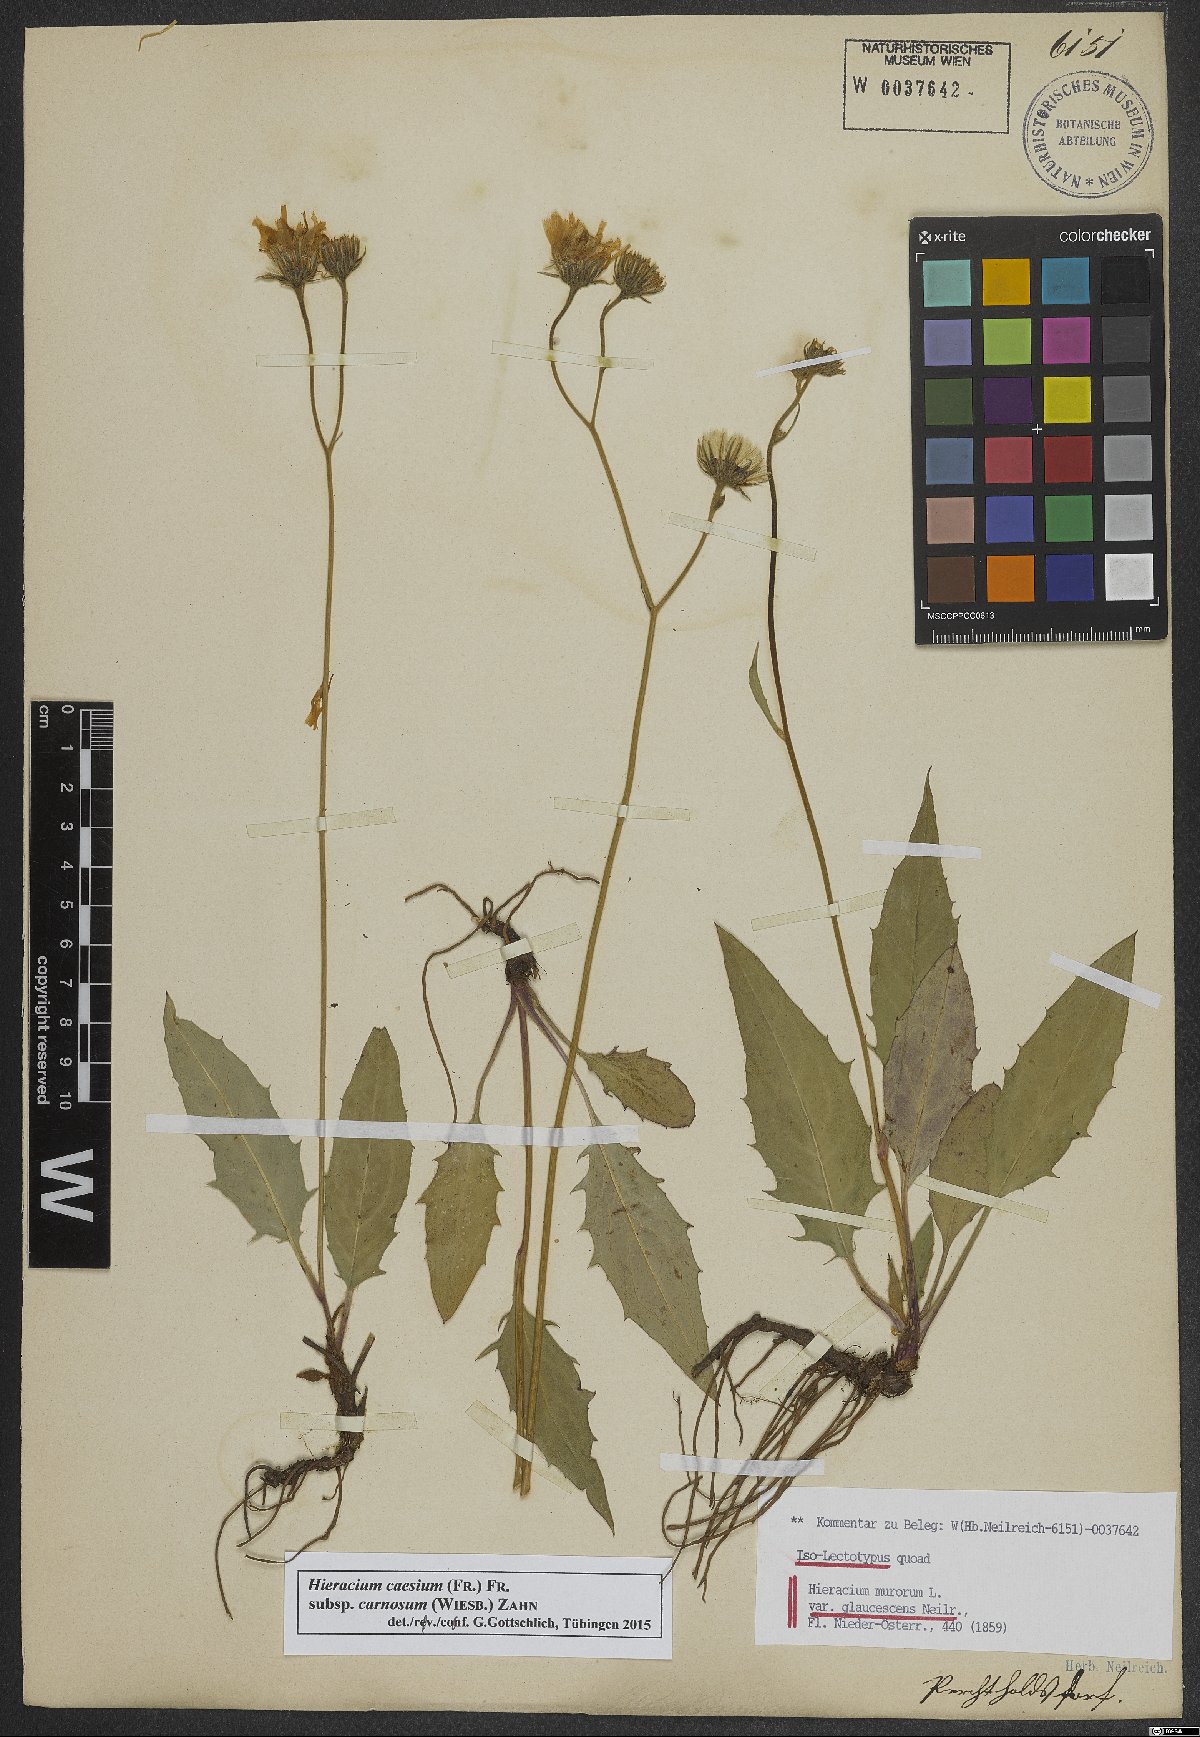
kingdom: Plantae
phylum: Tracheophyta
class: Magnoliopsida
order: Asterales
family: Asteraceae
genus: Hieracium
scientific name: Hieracium caesium
